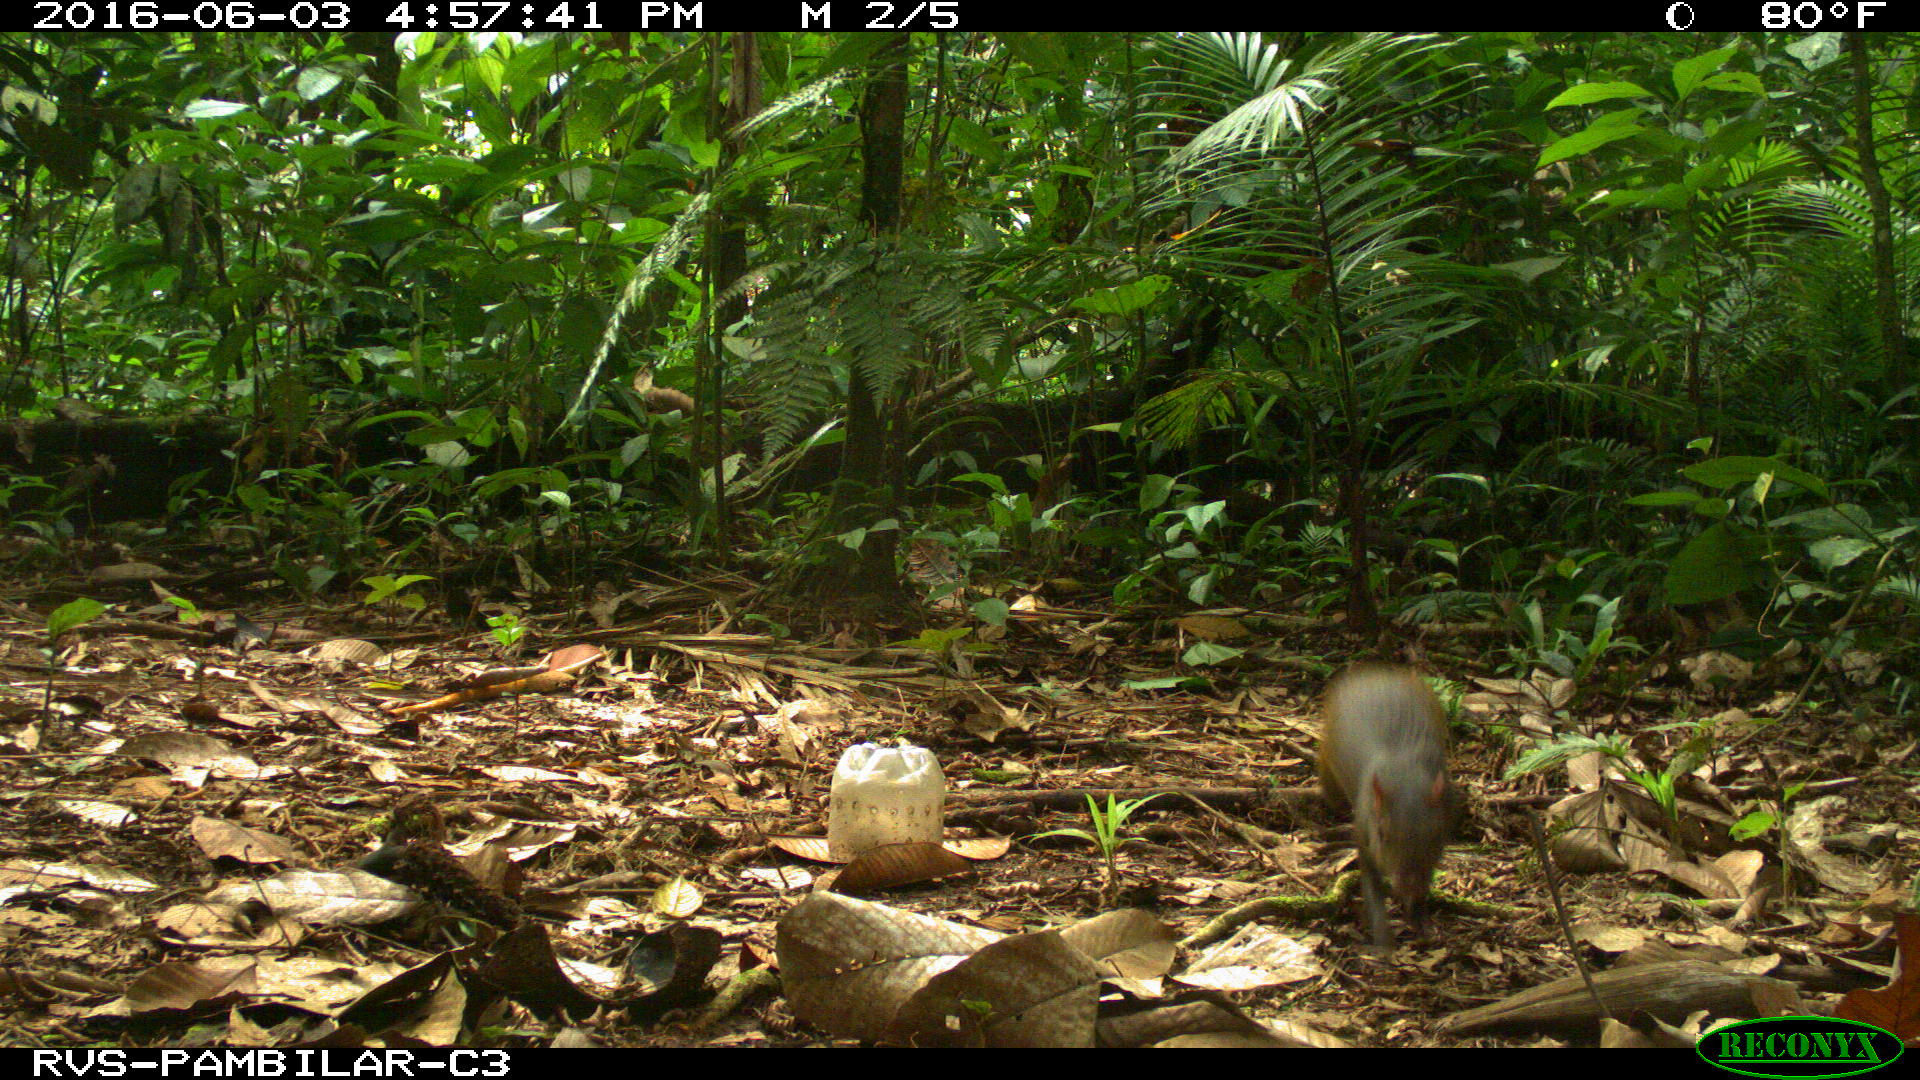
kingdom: Animalia
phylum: Chordata
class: Mammalia
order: Rodentia
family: Dasyproctidae
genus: Dasyprocta
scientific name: Dasyprocta punctata
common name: Central american agouti
